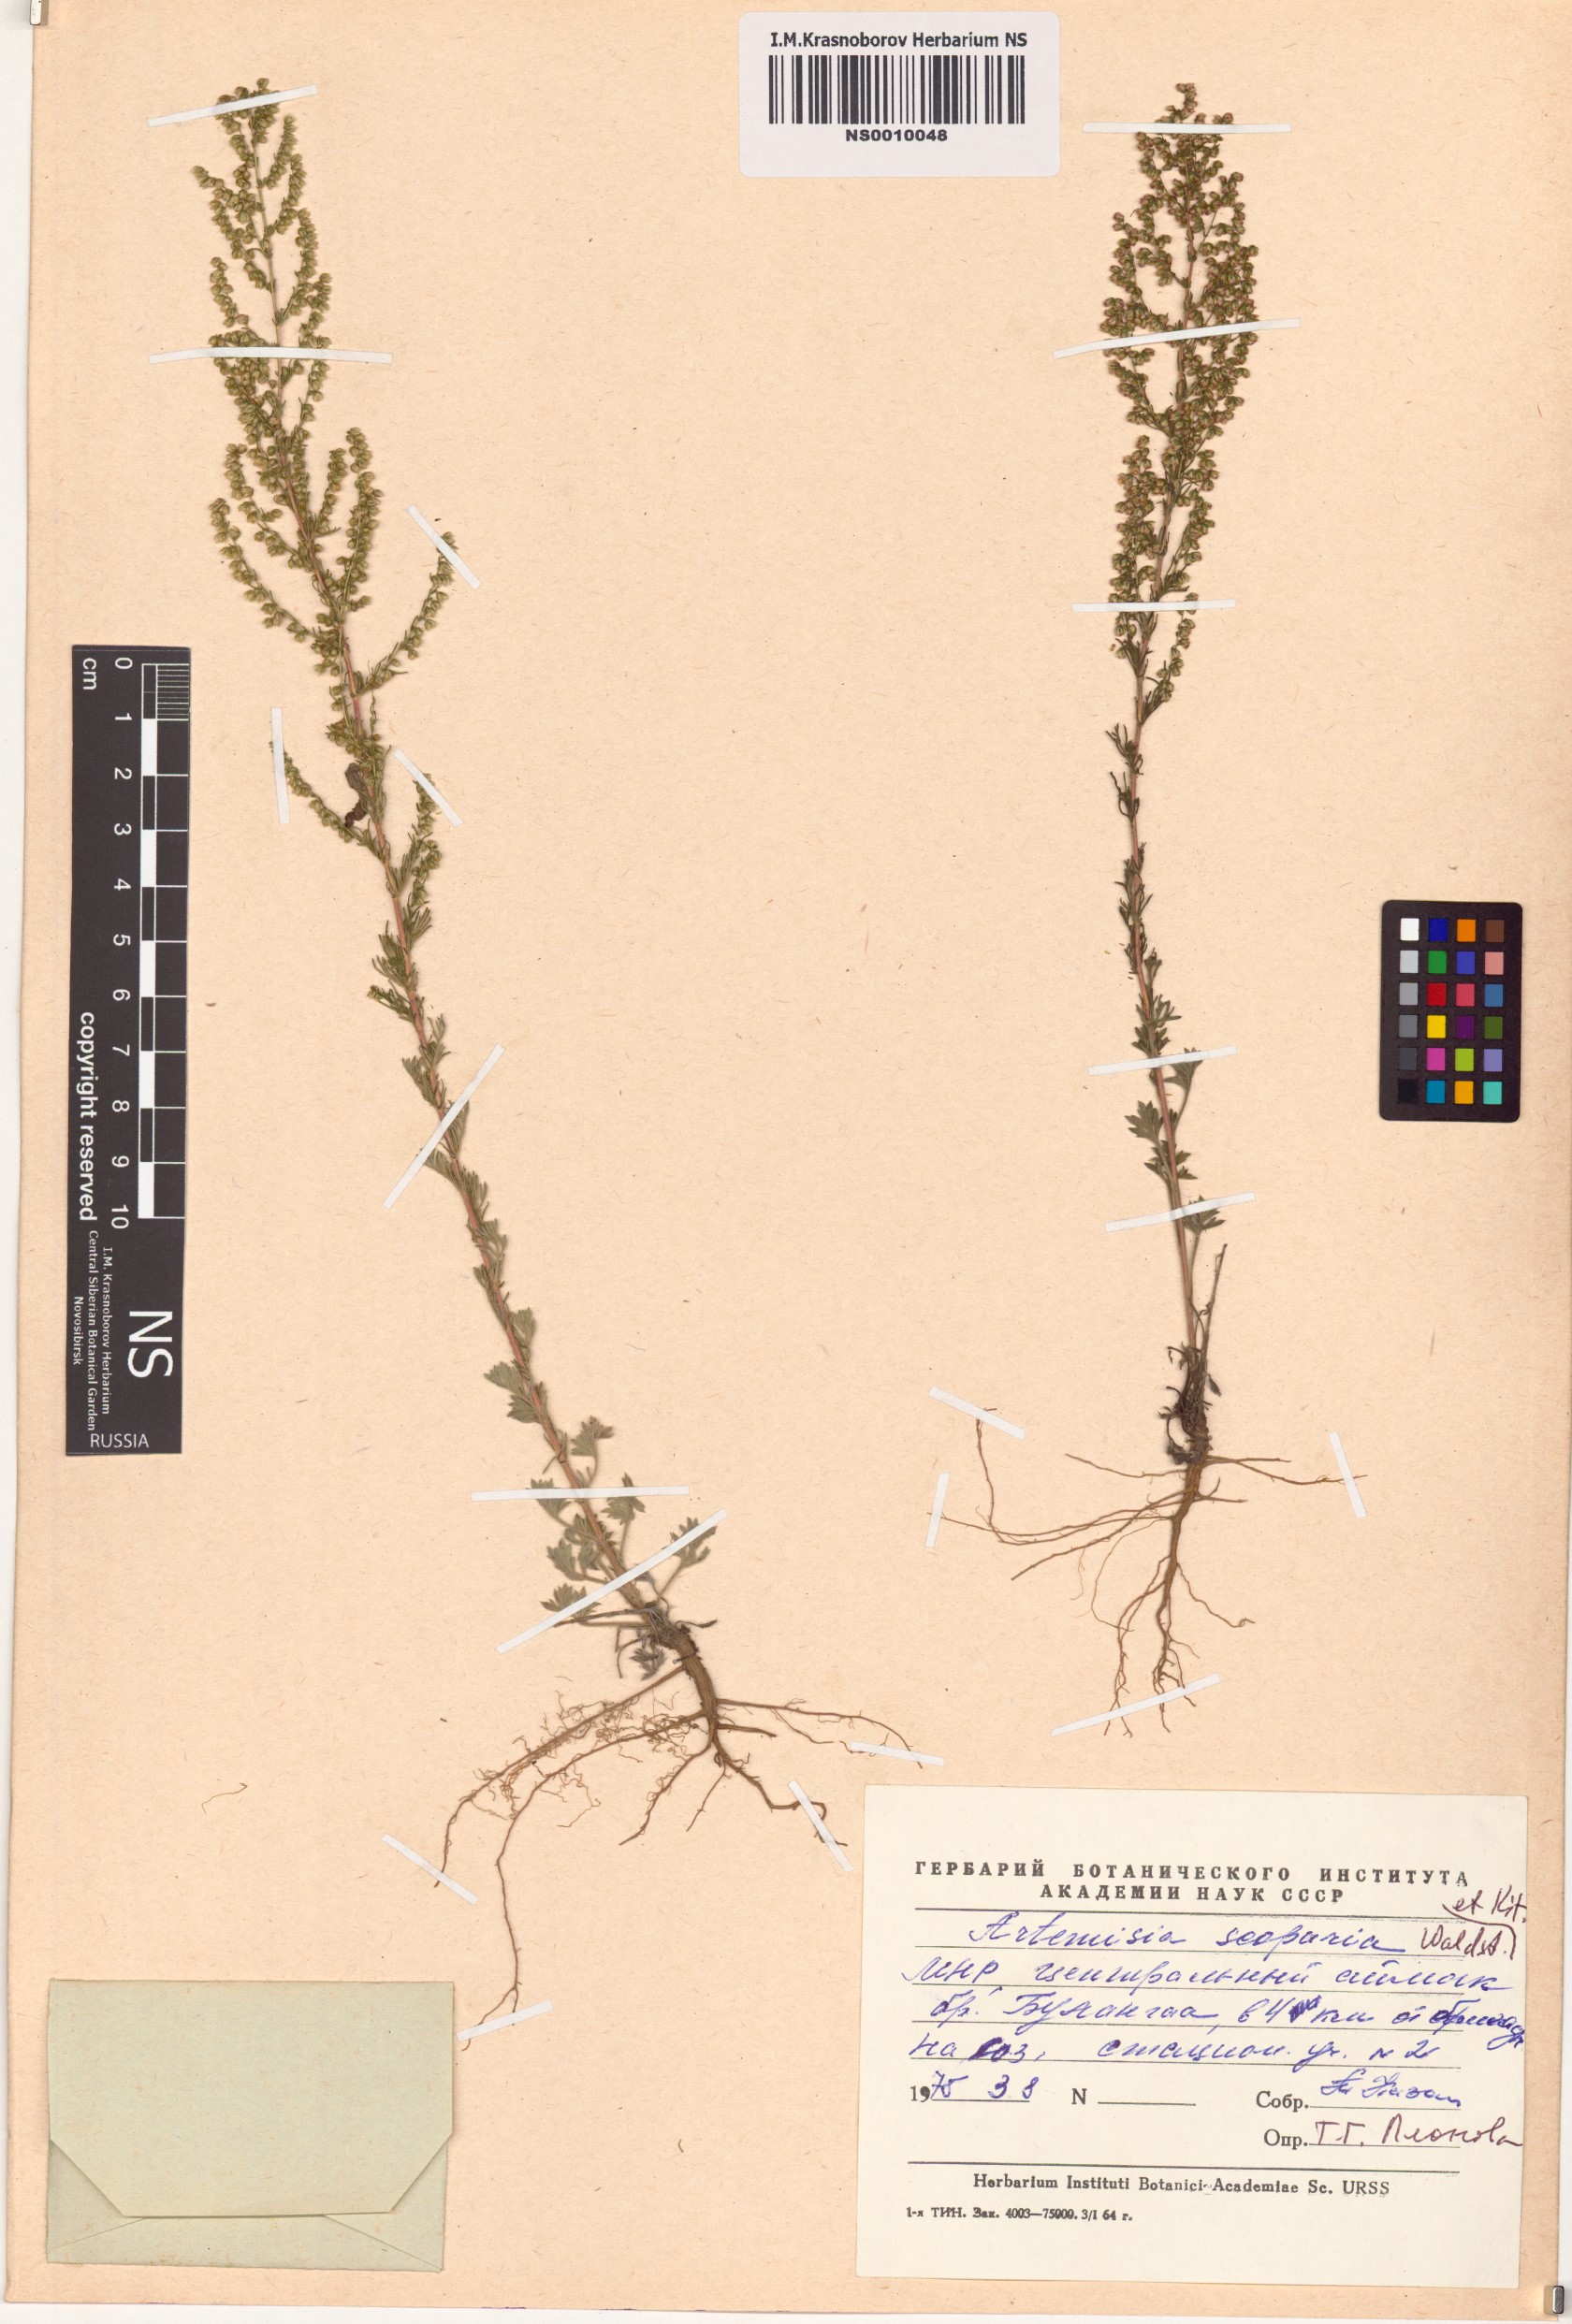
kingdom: Plantae
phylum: Tracheophyta
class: Magnoliopsida
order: Asterales
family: Asteraceae
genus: Artemisia
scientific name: Artemisia scoparia
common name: Redstem wormwood
